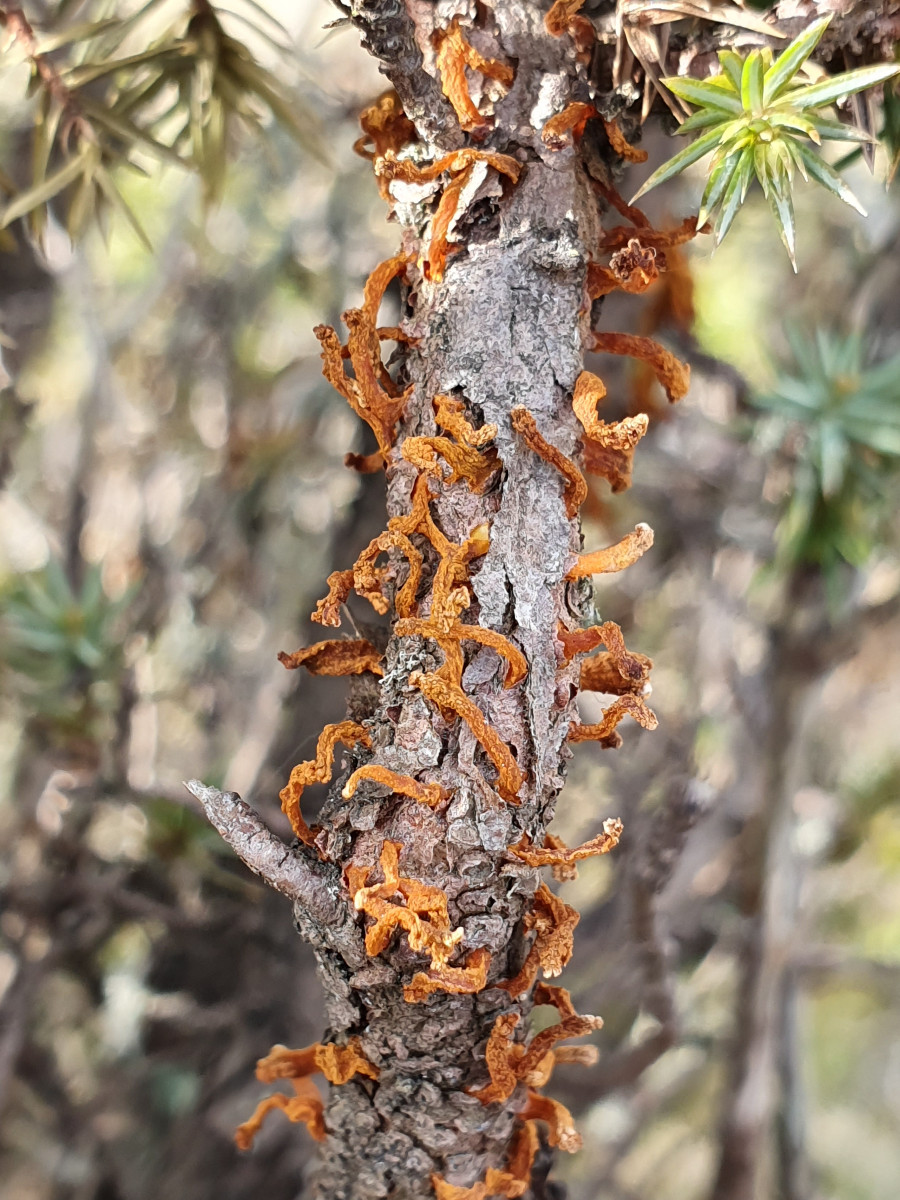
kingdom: Fungi
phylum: Basidiomycota
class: Pucciniomycetes
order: Pucciniales
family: Gymnosporangiaceae
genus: Gymnosporangium
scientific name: Gymnosporangium clavariiforme
